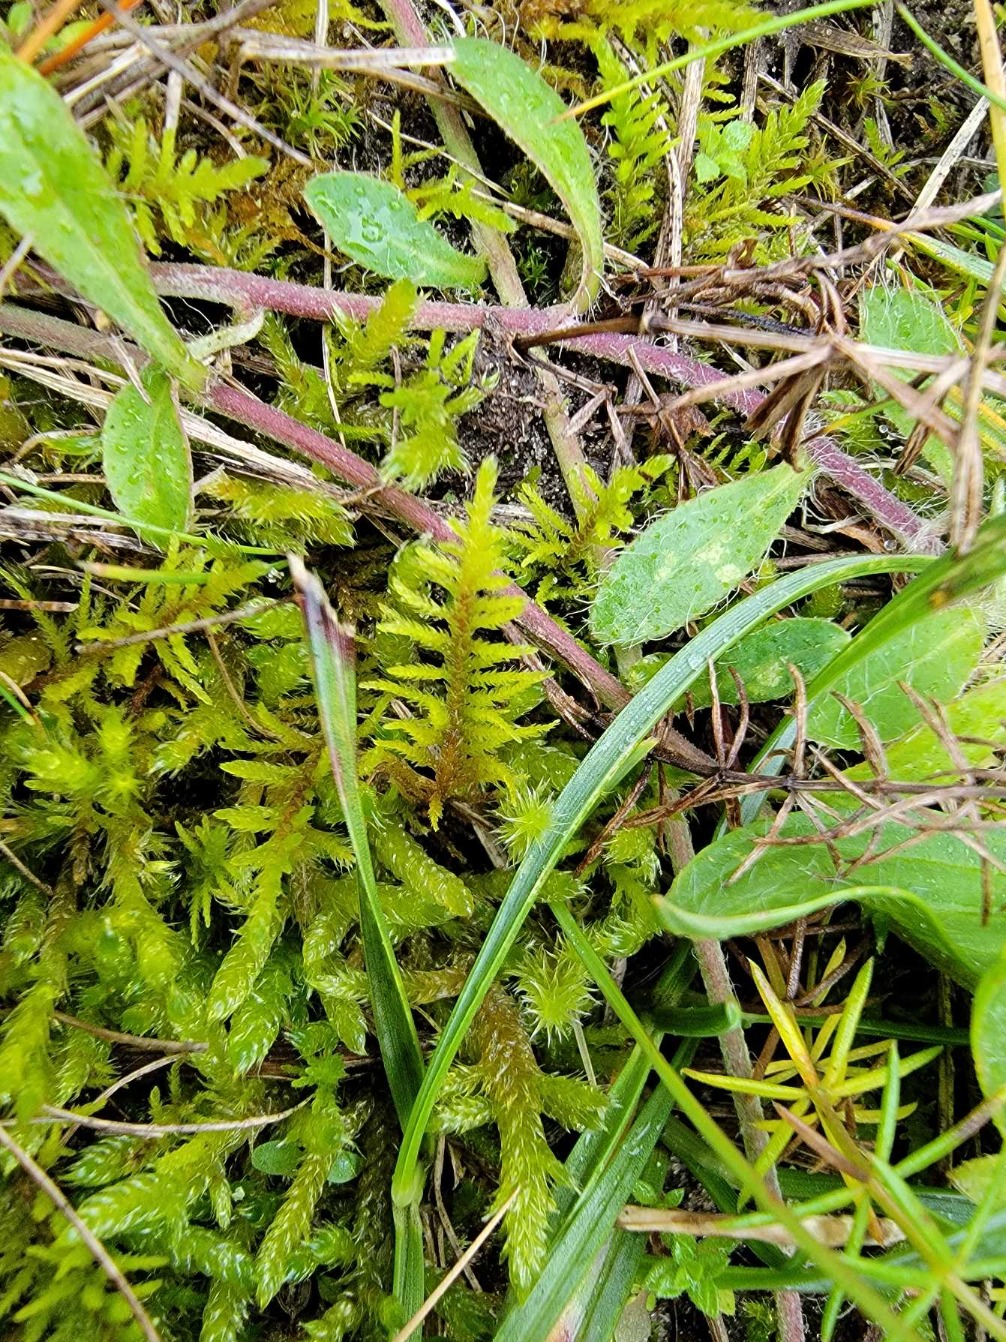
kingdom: Plantae
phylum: Bryophyta
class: Bryopsida
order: Hypnales
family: Thuidiaceae
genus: Abietinella
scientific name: Abietinella abietina
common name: Bakke-granmos
